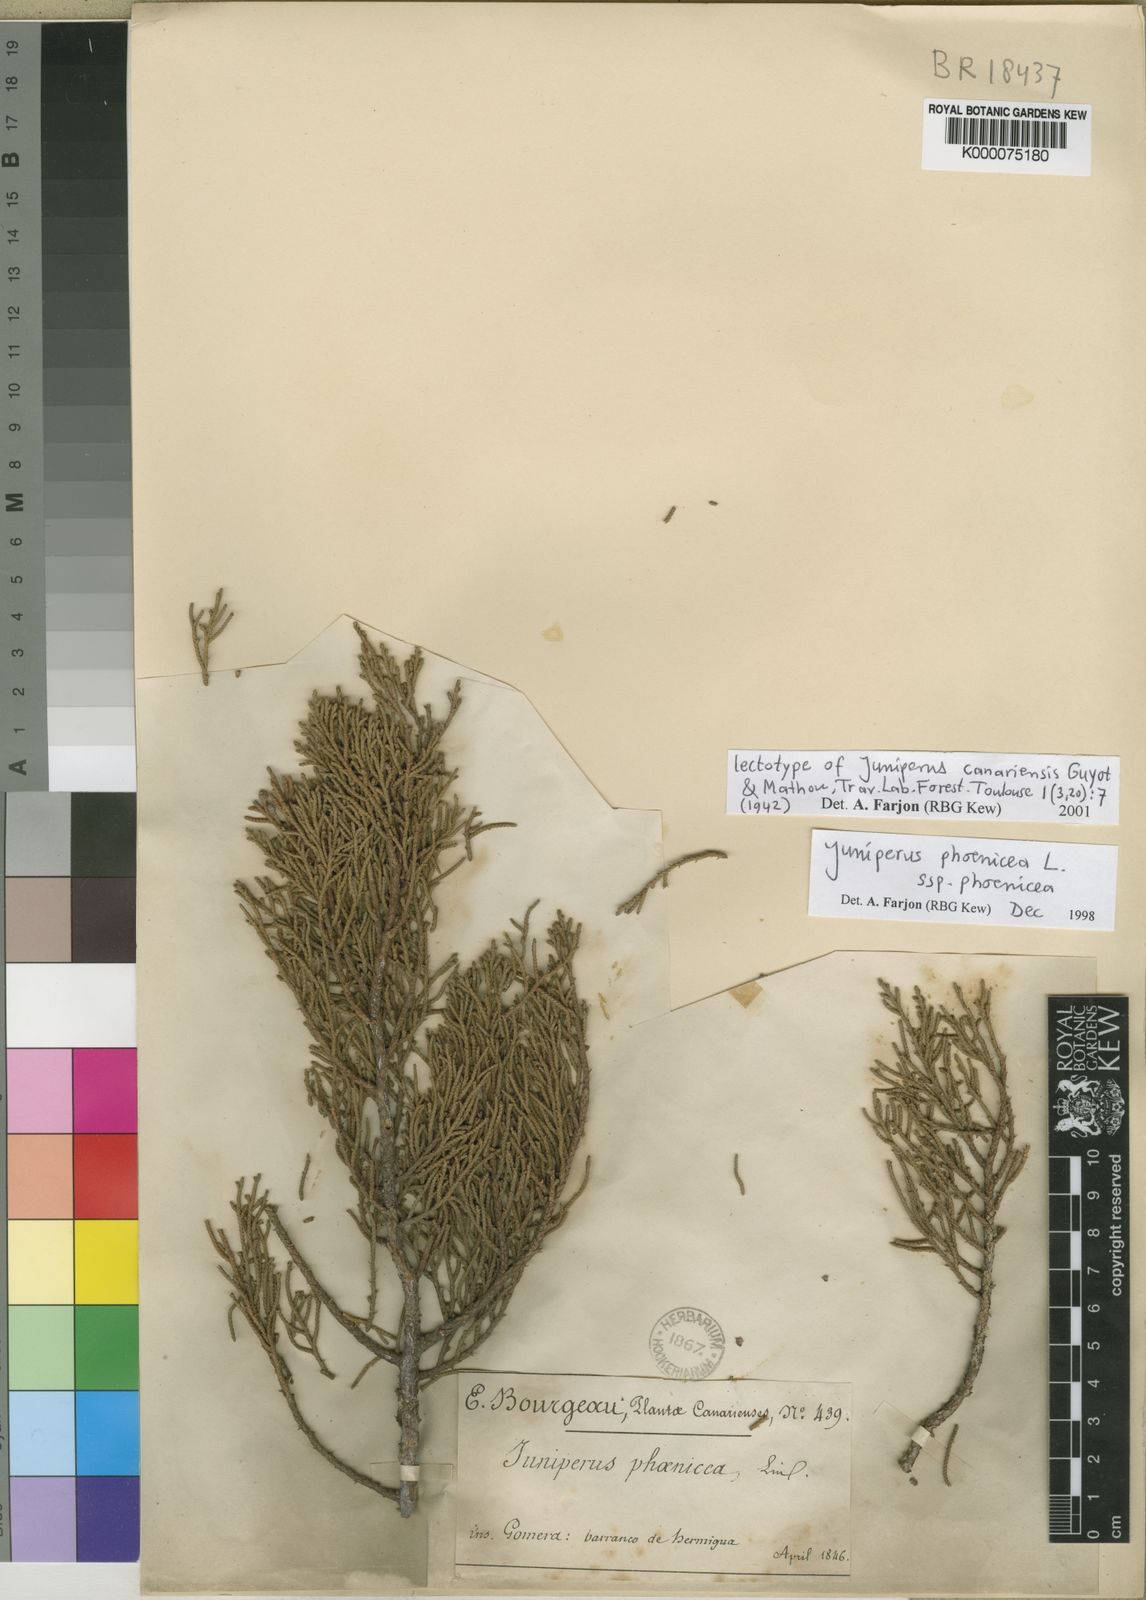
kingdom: Plantae
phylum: Tracheophyta
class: Pinopsida
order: Pinales
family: Cupressaceae
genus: Juniperus
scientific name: Juniperus phoenicea
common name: Phoenician juniper
